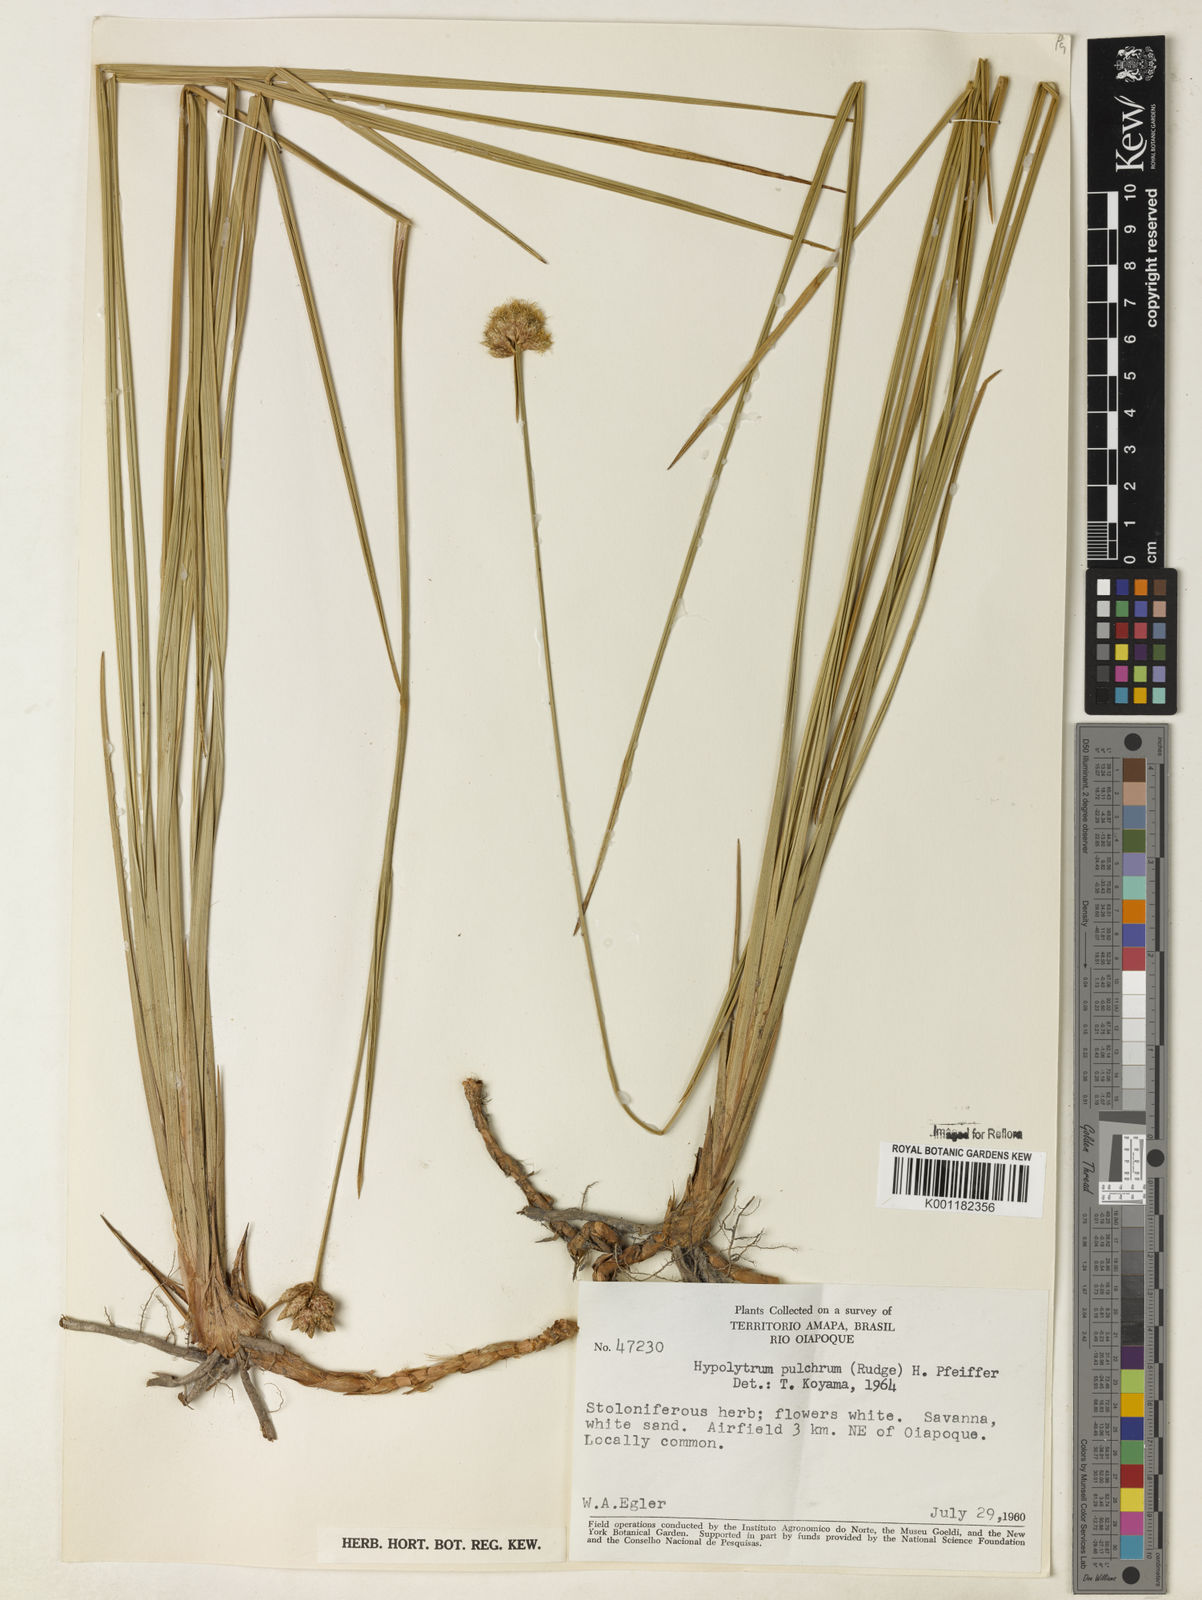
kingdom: Plantae
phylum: Tracheophyta
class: Liliopsida
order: Poales
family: Cyperaceae
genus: Hypolytrum
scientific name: Hypolytrum pulchrum
